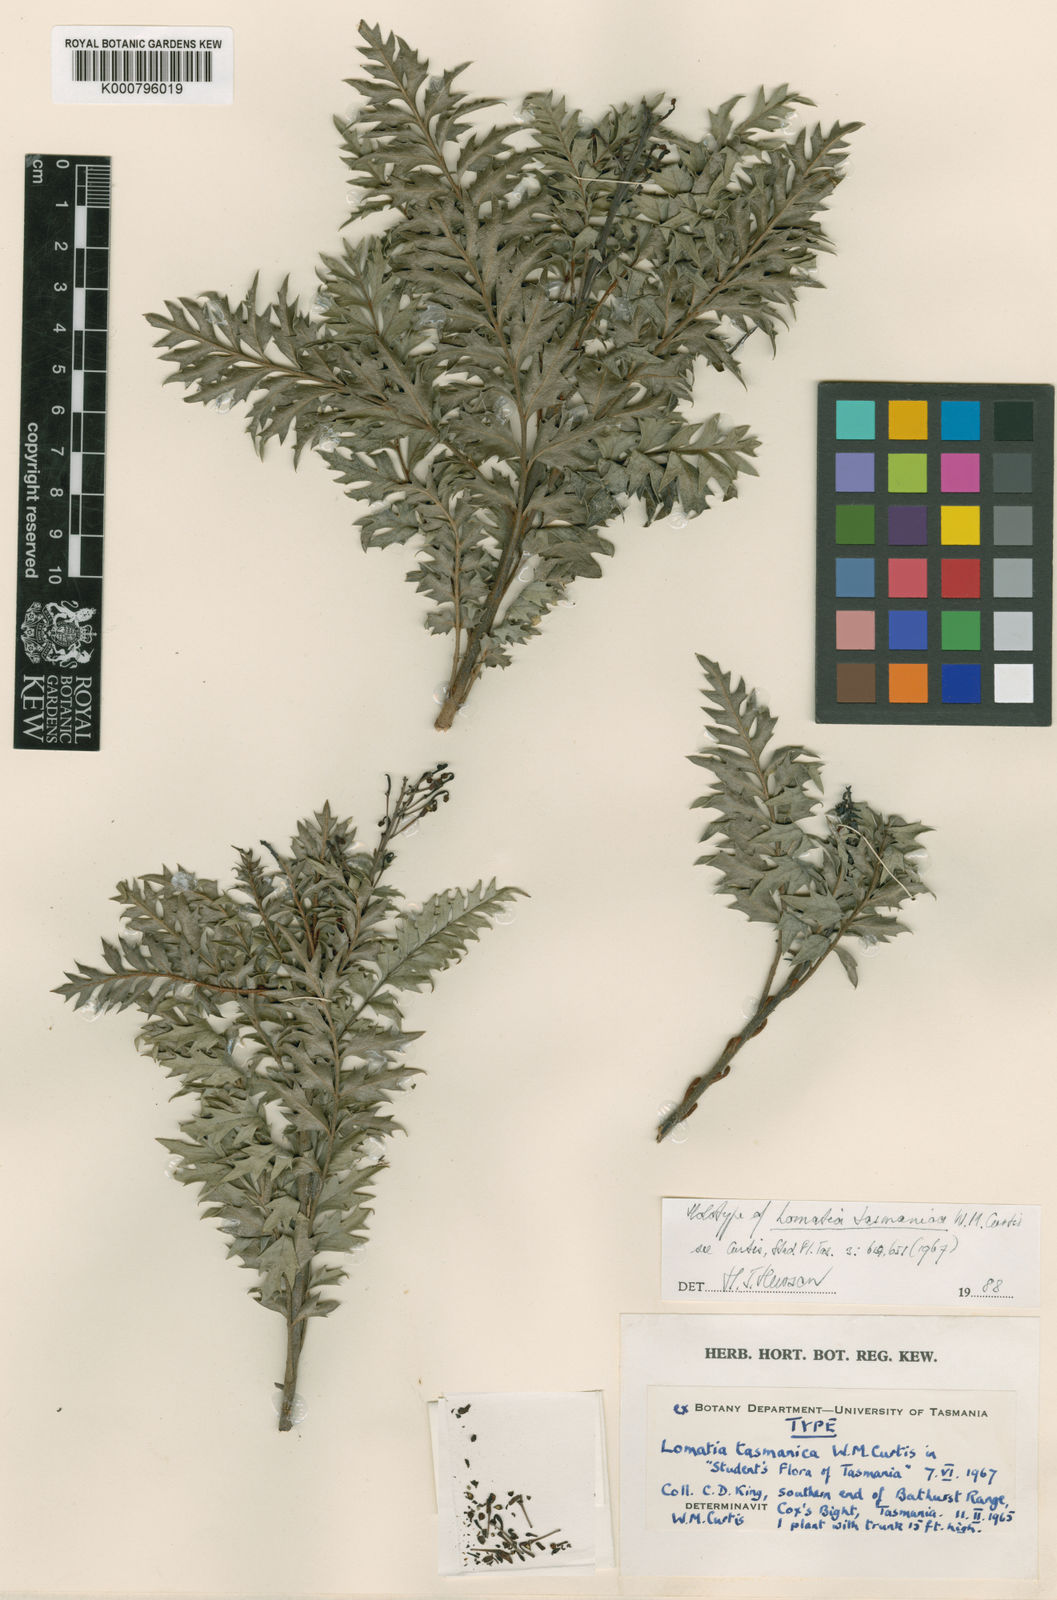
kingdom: Plantae
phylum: Tracheophyta
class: Magnoliopsida
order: Proteales
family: Proteaceae
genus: Lomatia
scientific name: Lomatia tasmanica
